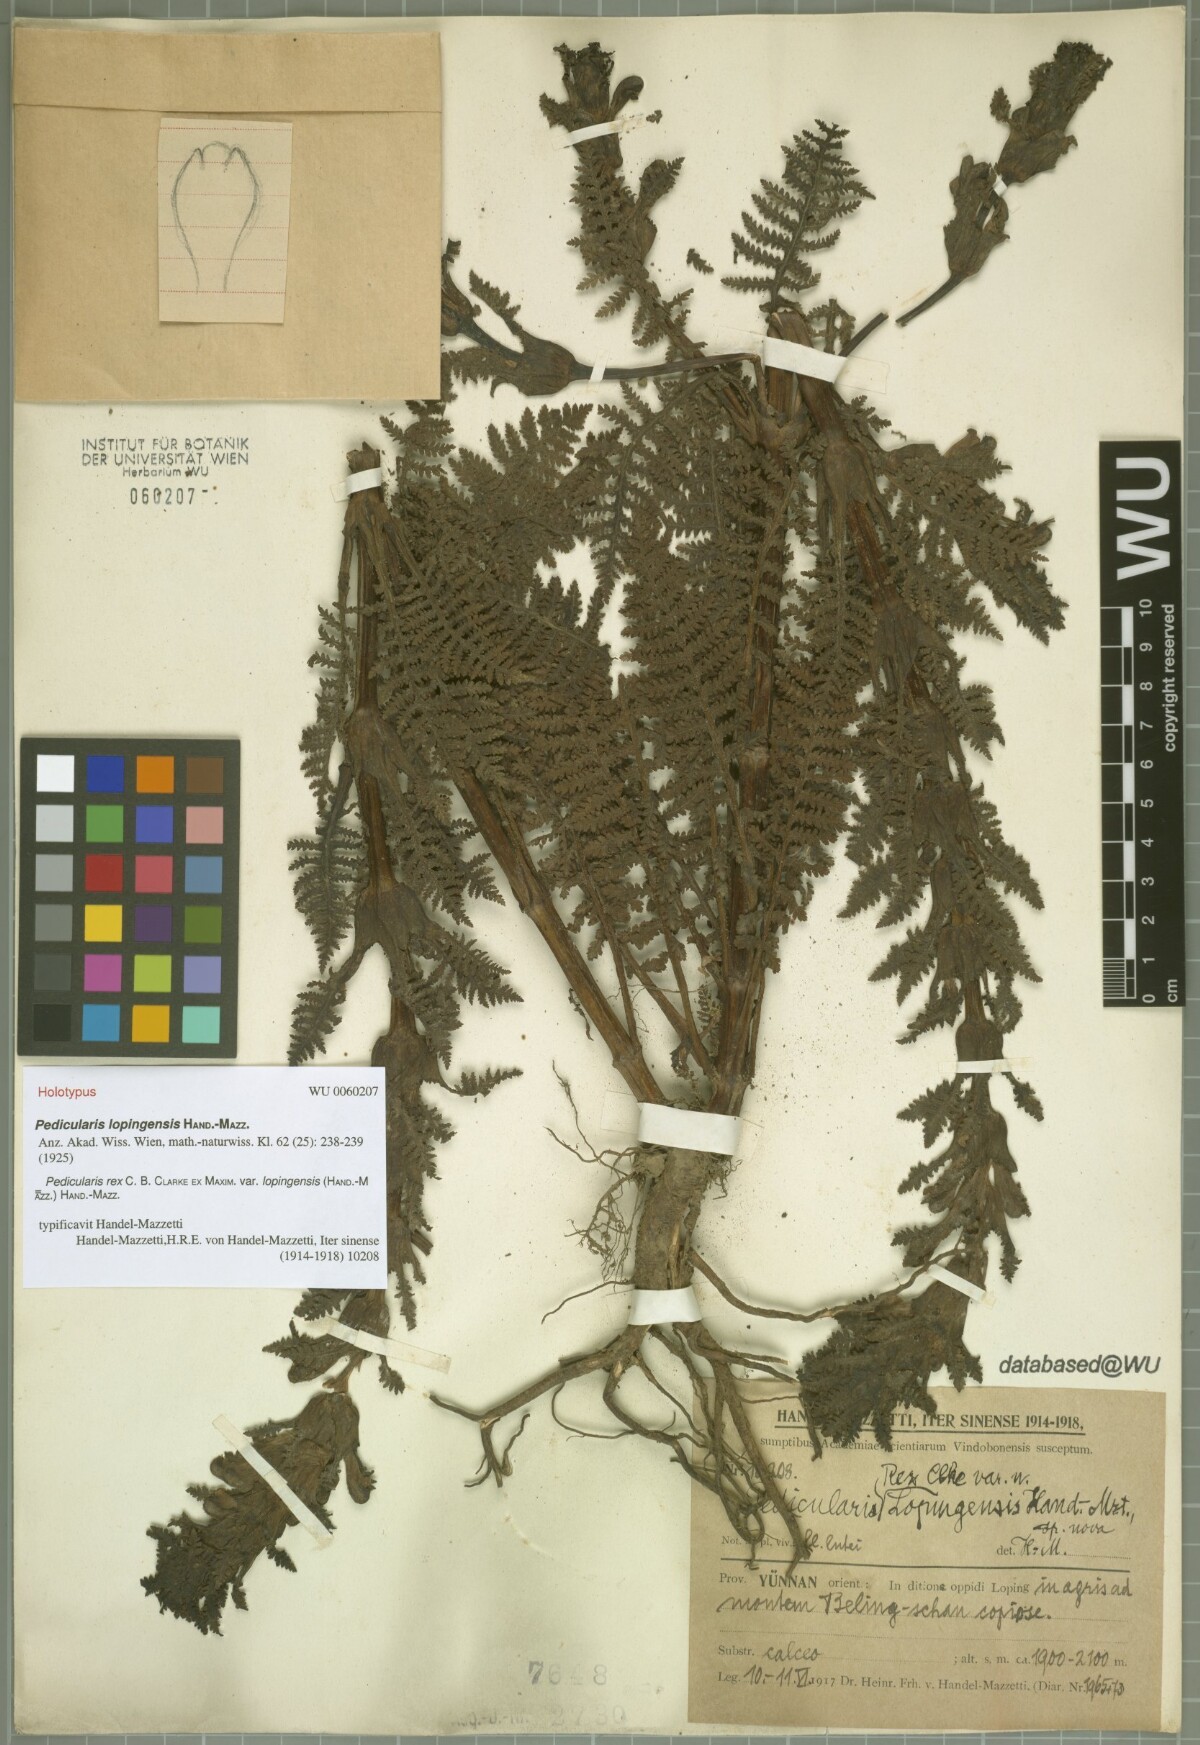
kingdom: Plantae
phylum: Tracheophyta
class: Magnoliopsida
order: Lamiales
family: Orobanchaceae
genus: Pedicularis
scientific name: Pedicularis rex
